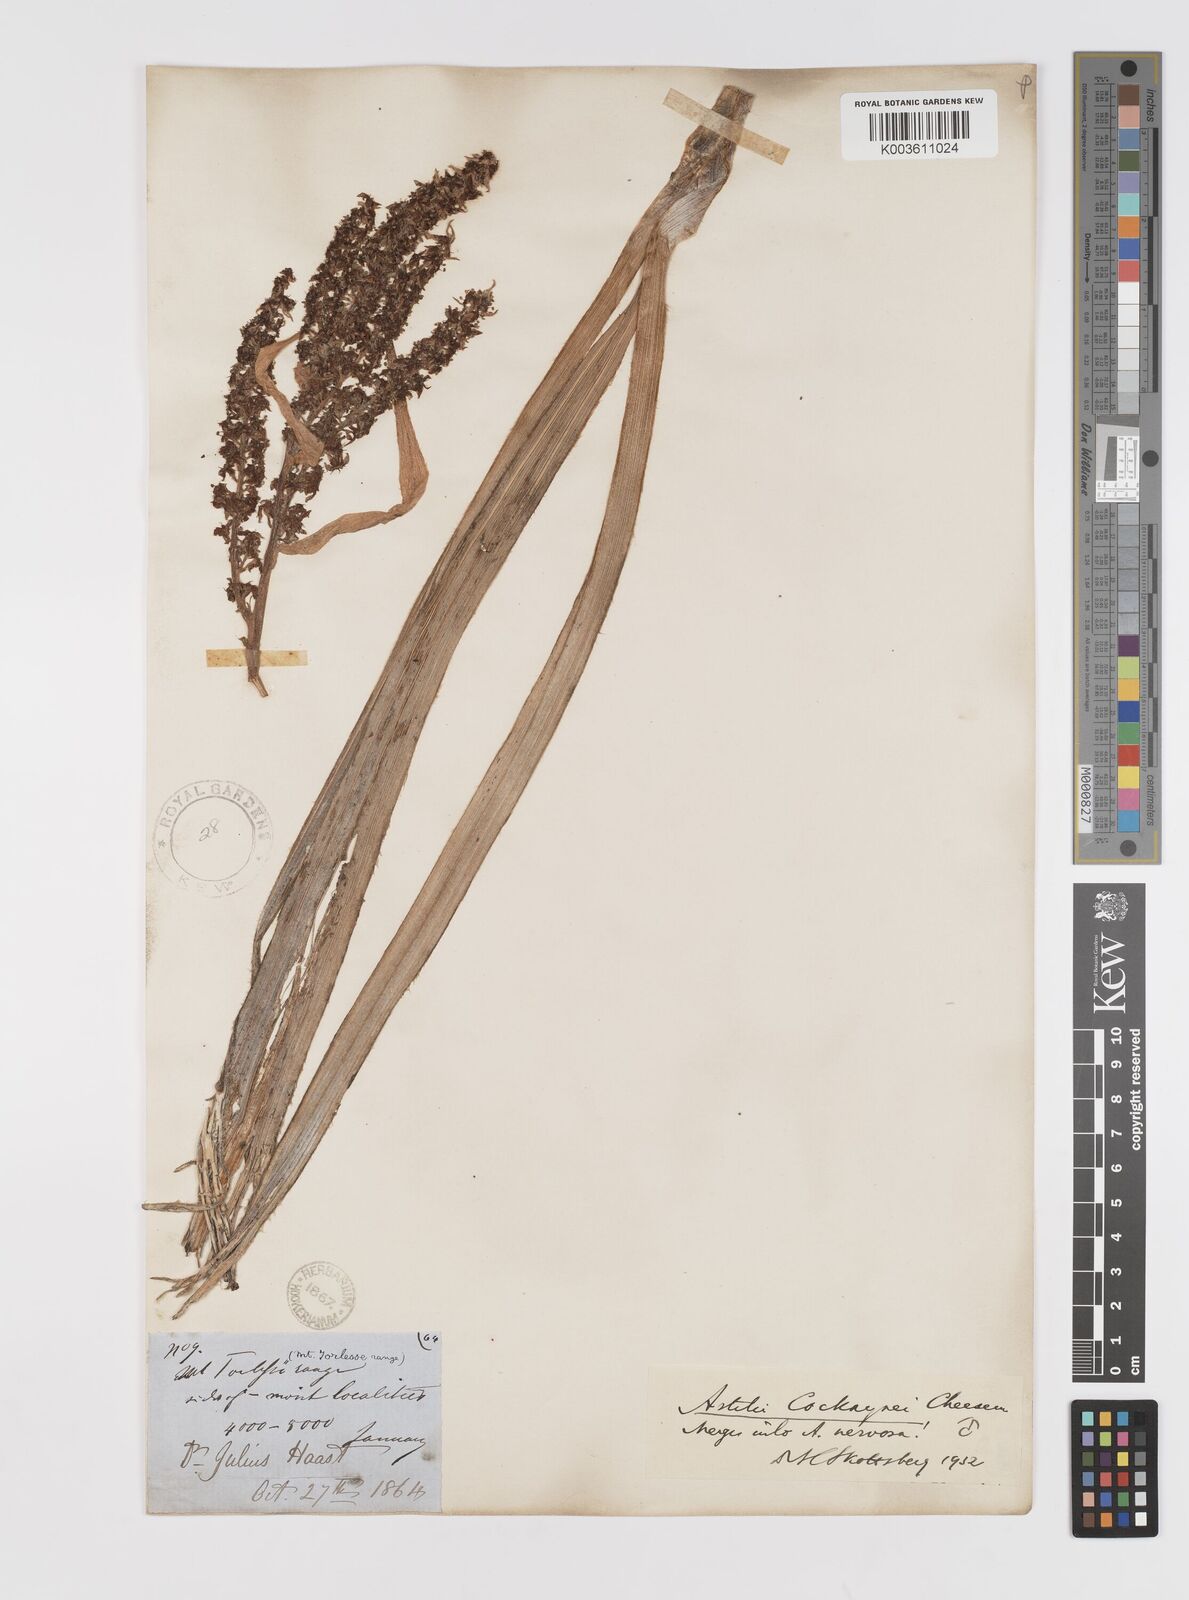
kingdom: Plantae
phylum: Tracheophyta
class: Liliopsida
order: Asparagales
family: Asteliaceae
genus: Astelia
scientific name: Astelia nervosa
